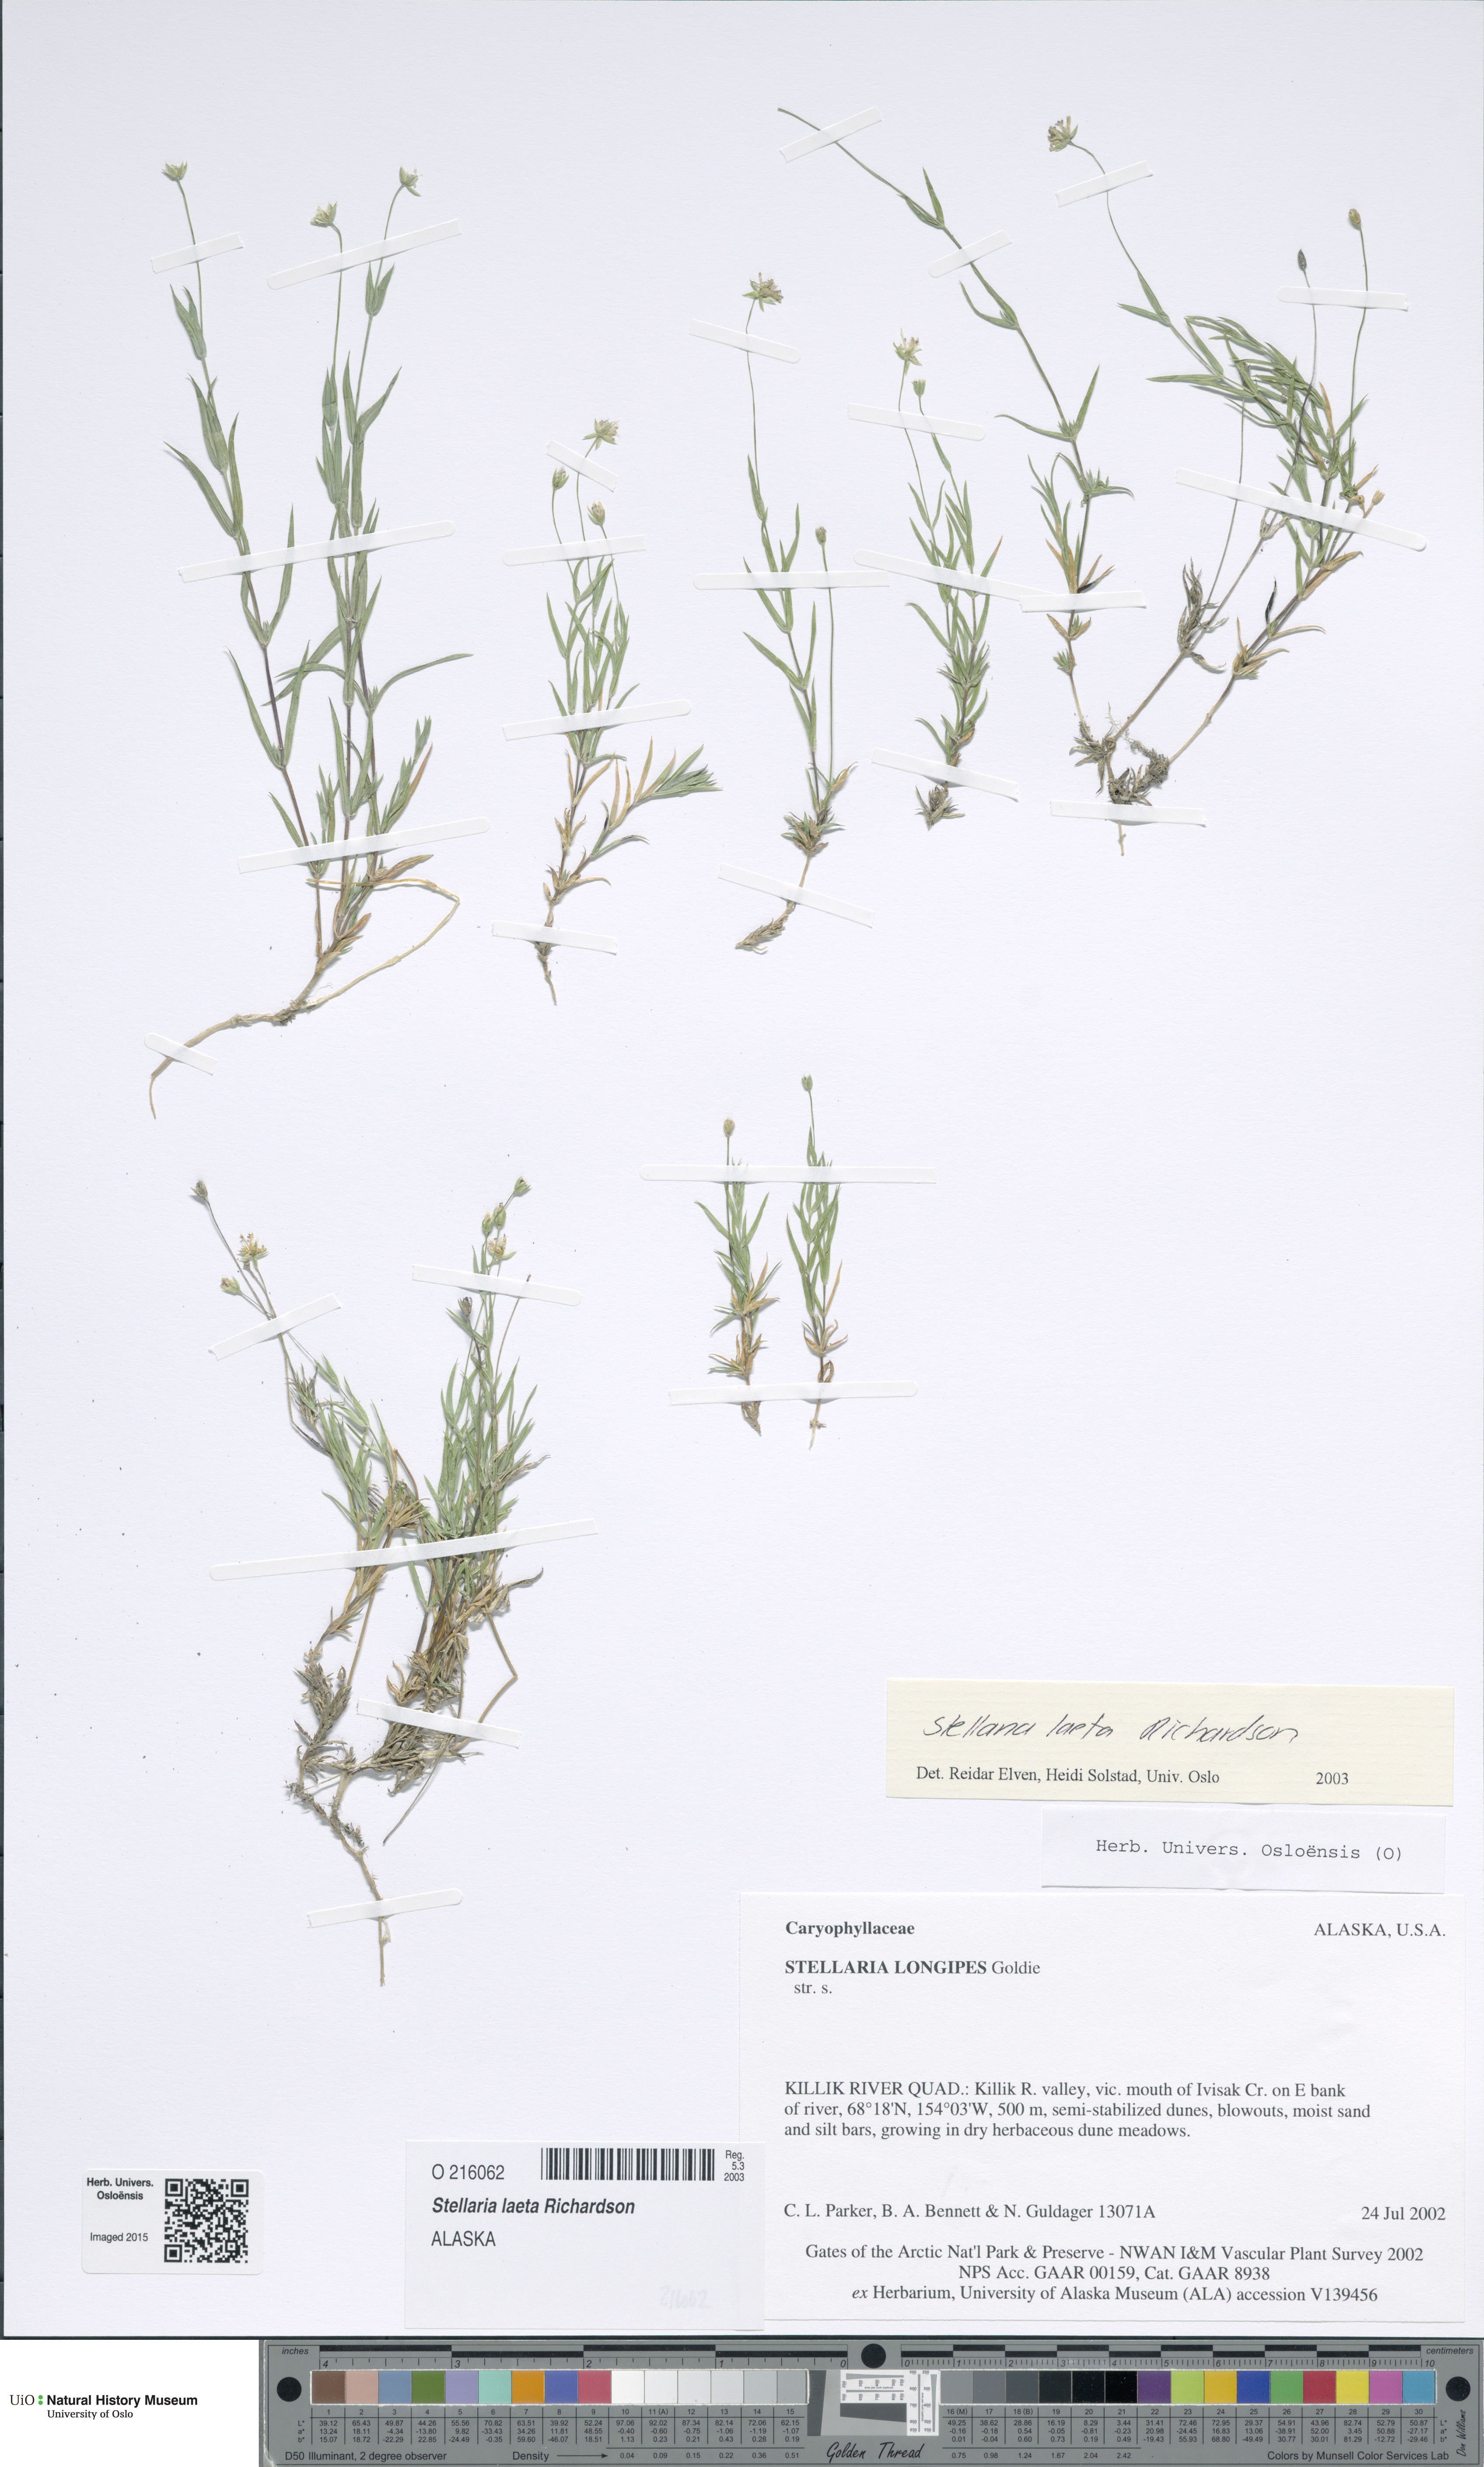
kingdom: Plantae
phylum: Tracheophyta
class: Magnoliopsida
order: Caryophyllales
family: Caryophyllaceae
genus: Stellaria
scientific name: Stellaria laeta
